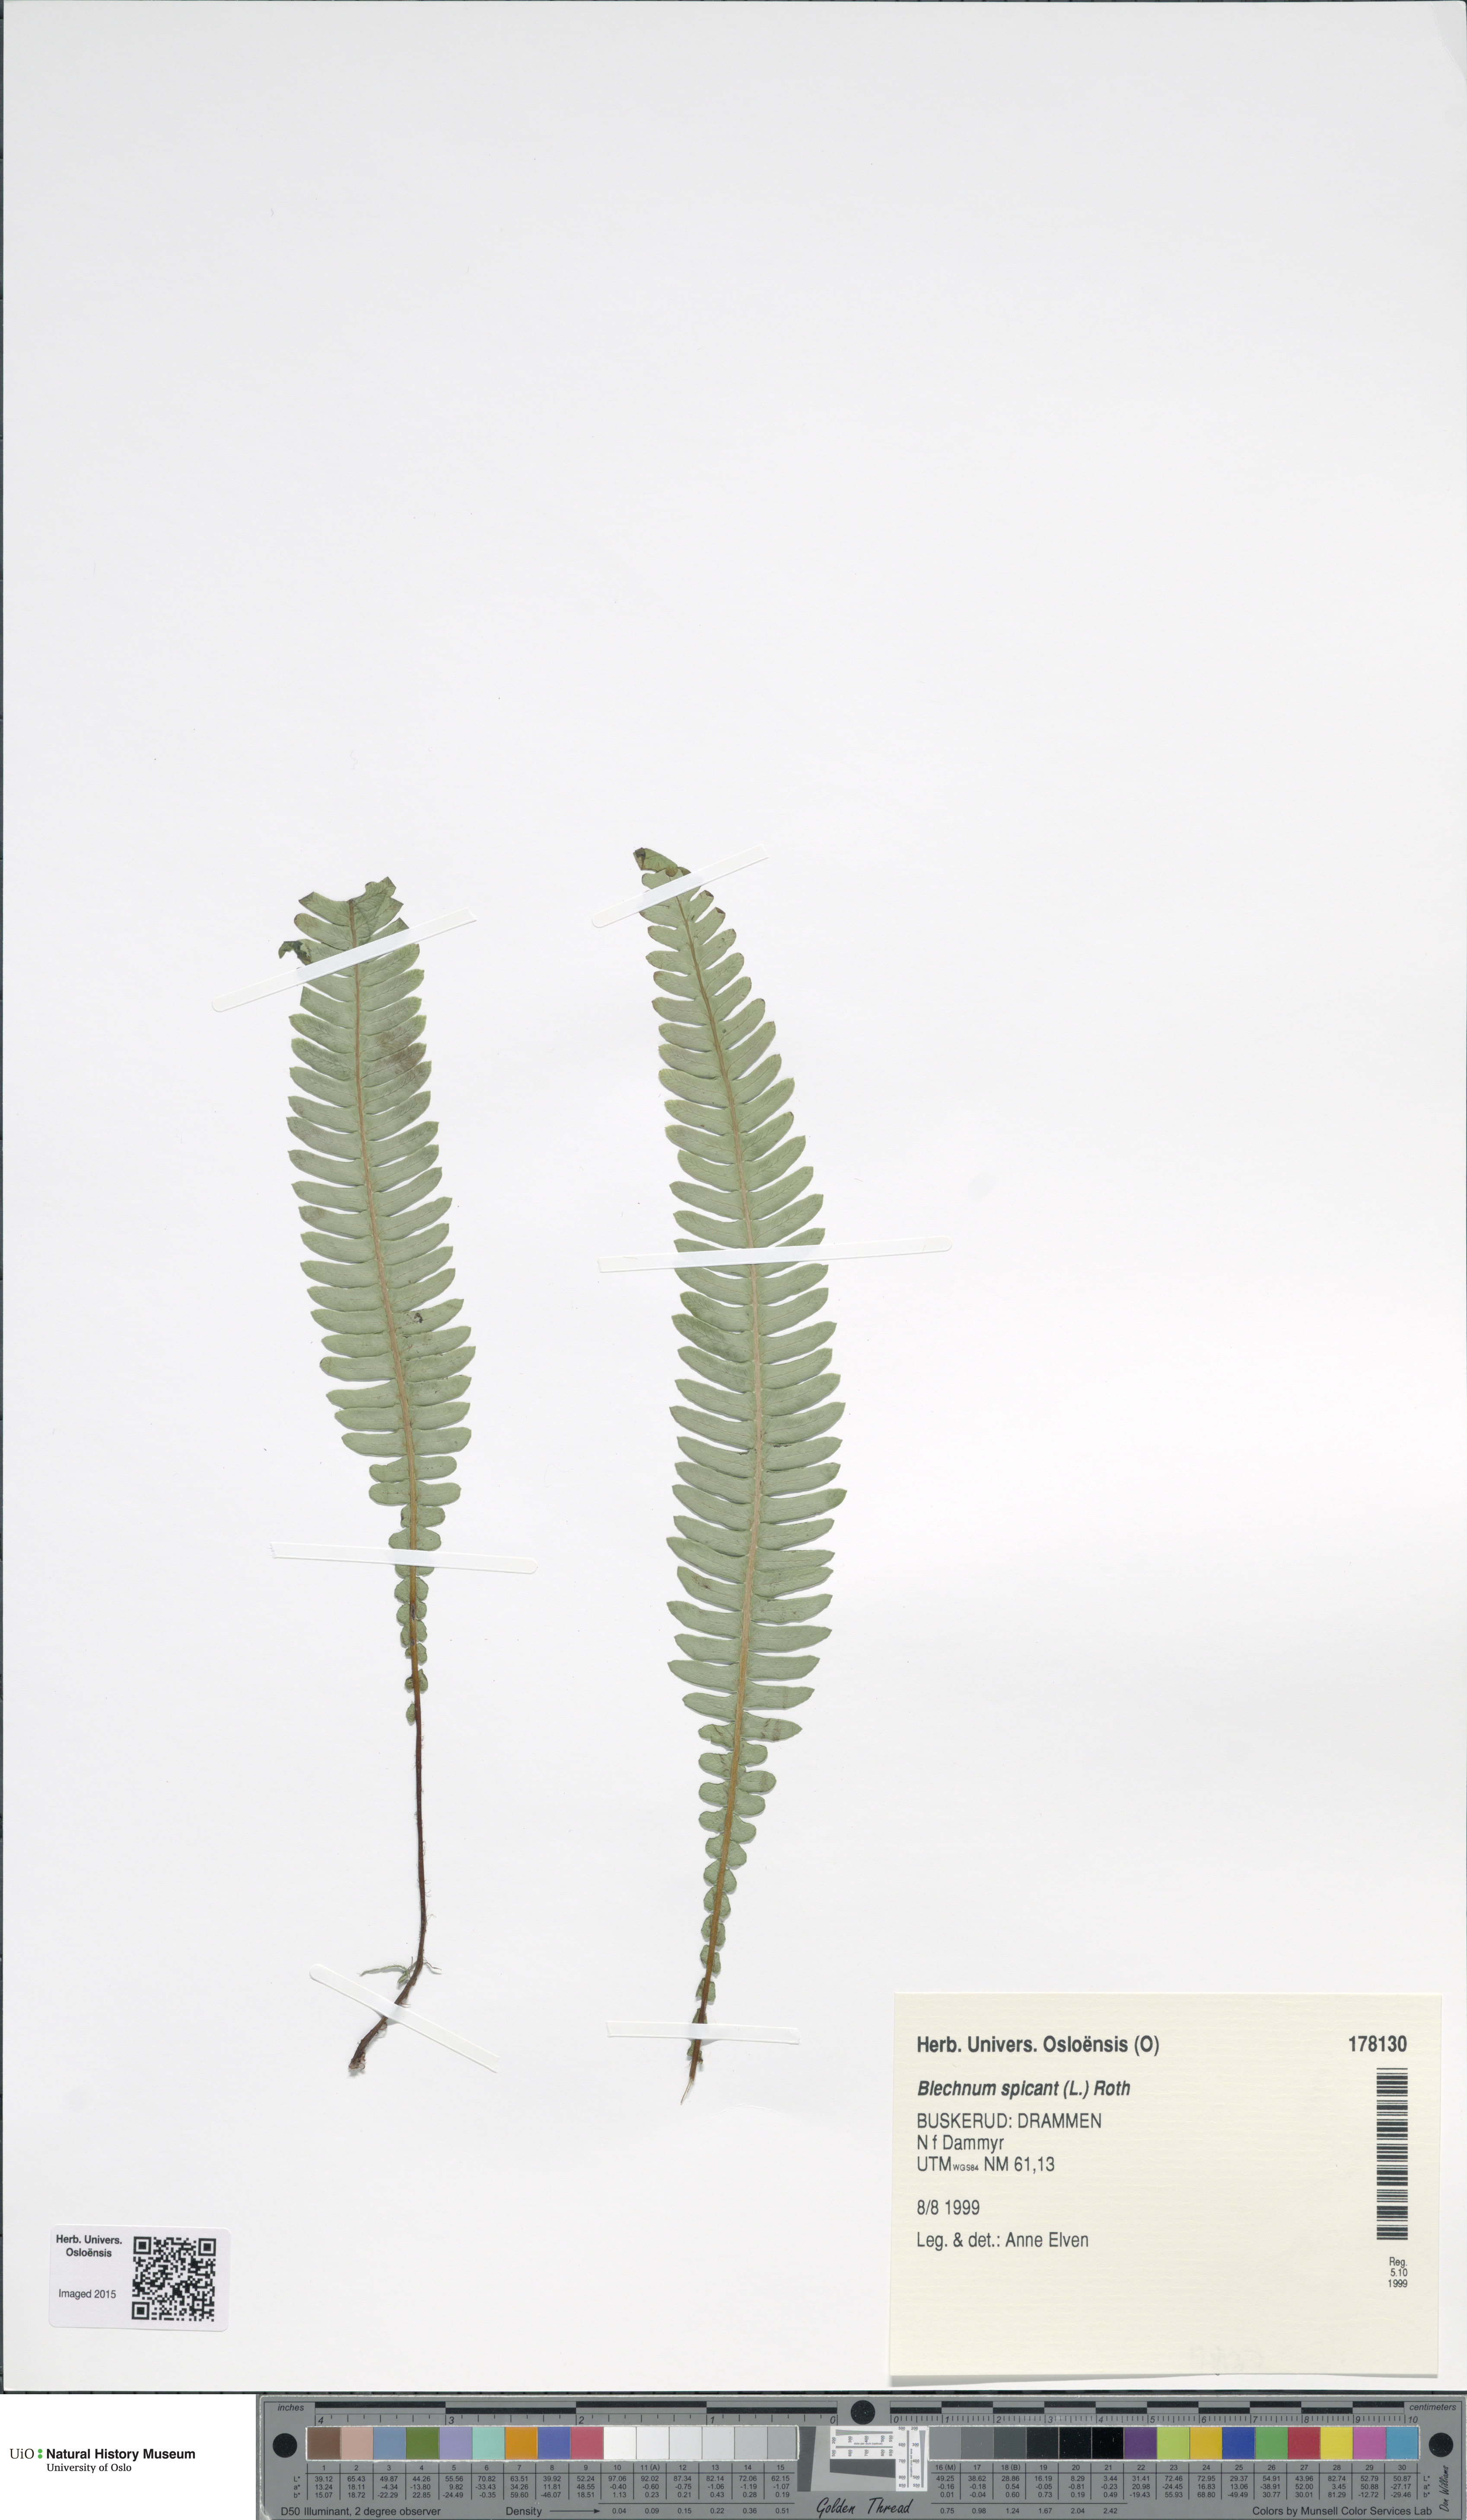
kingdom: Plantae
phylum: Tracheophyta
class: Polypodiopsida
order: Polypodiales
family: Blechnaceae
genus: Struthiopteris
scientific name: Struthiopteris spicant
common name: Deer fern
